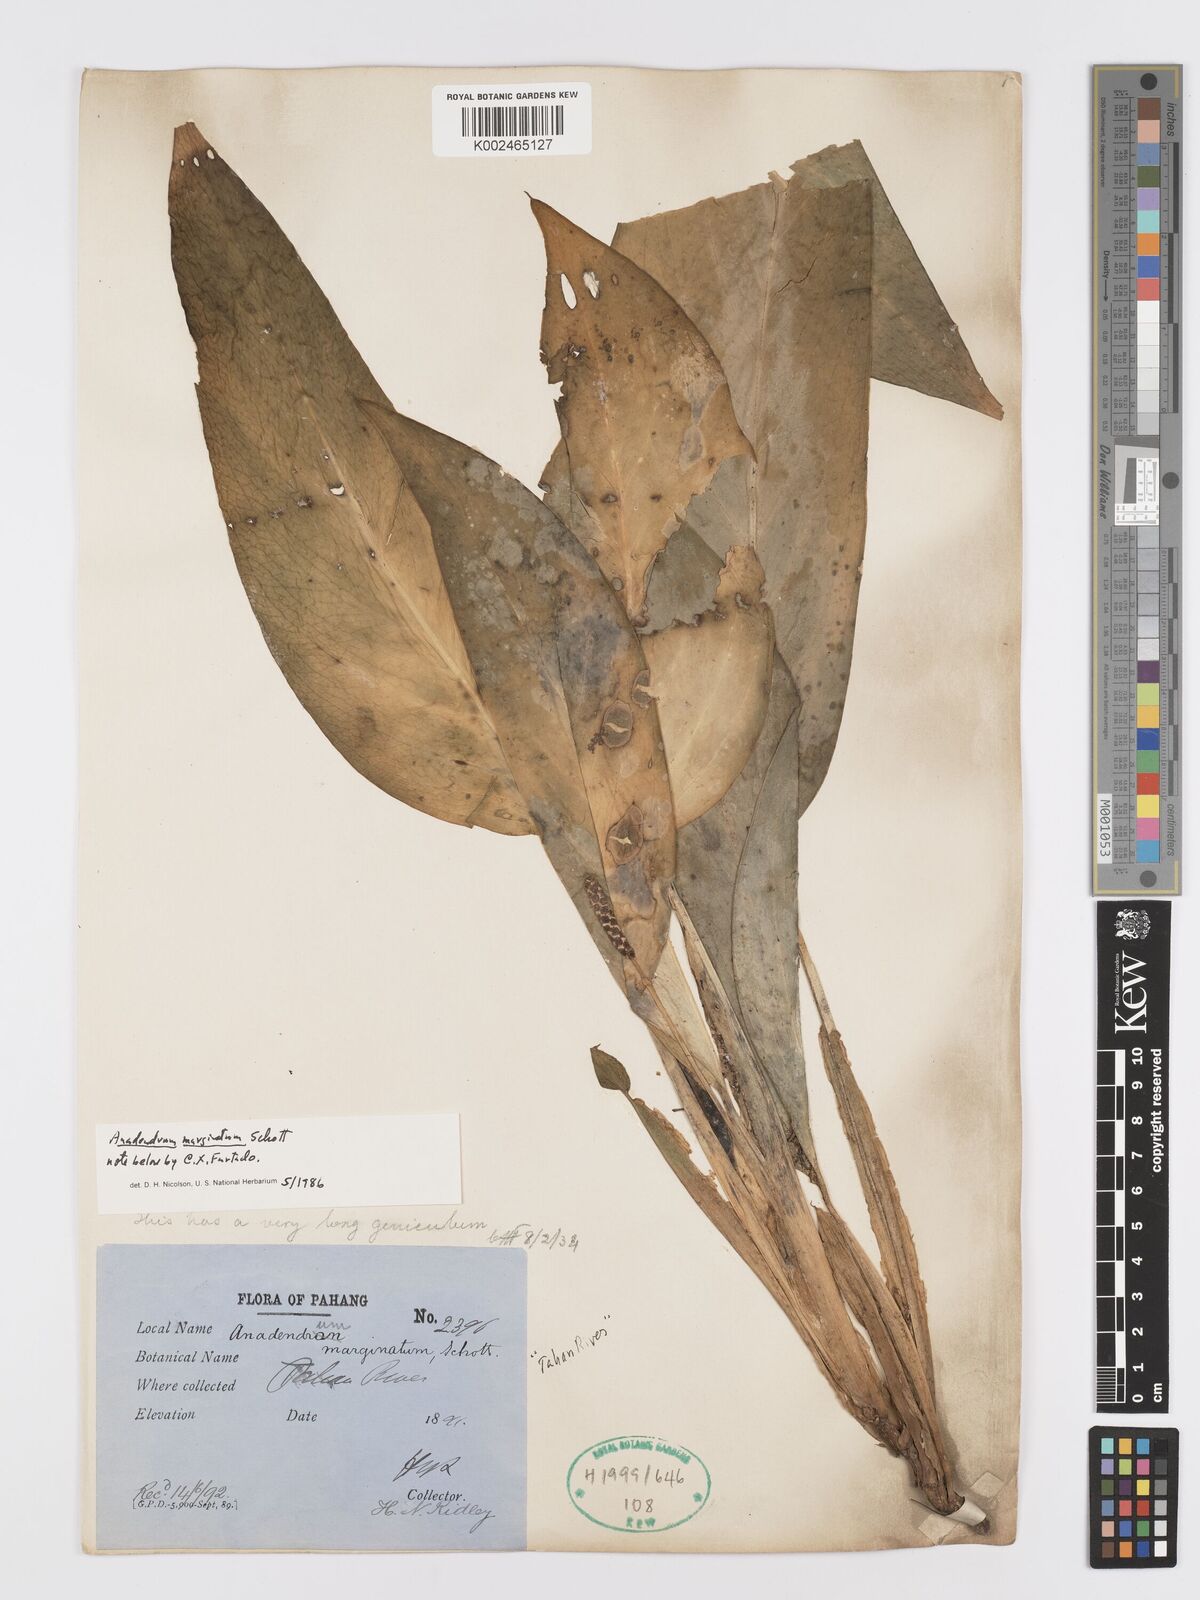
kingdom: Plantae
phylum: Tracheophyta
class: Liliopsida
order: Alismatales
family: Araceae
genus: Anadendrum
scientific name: Anadendrum marginatum
